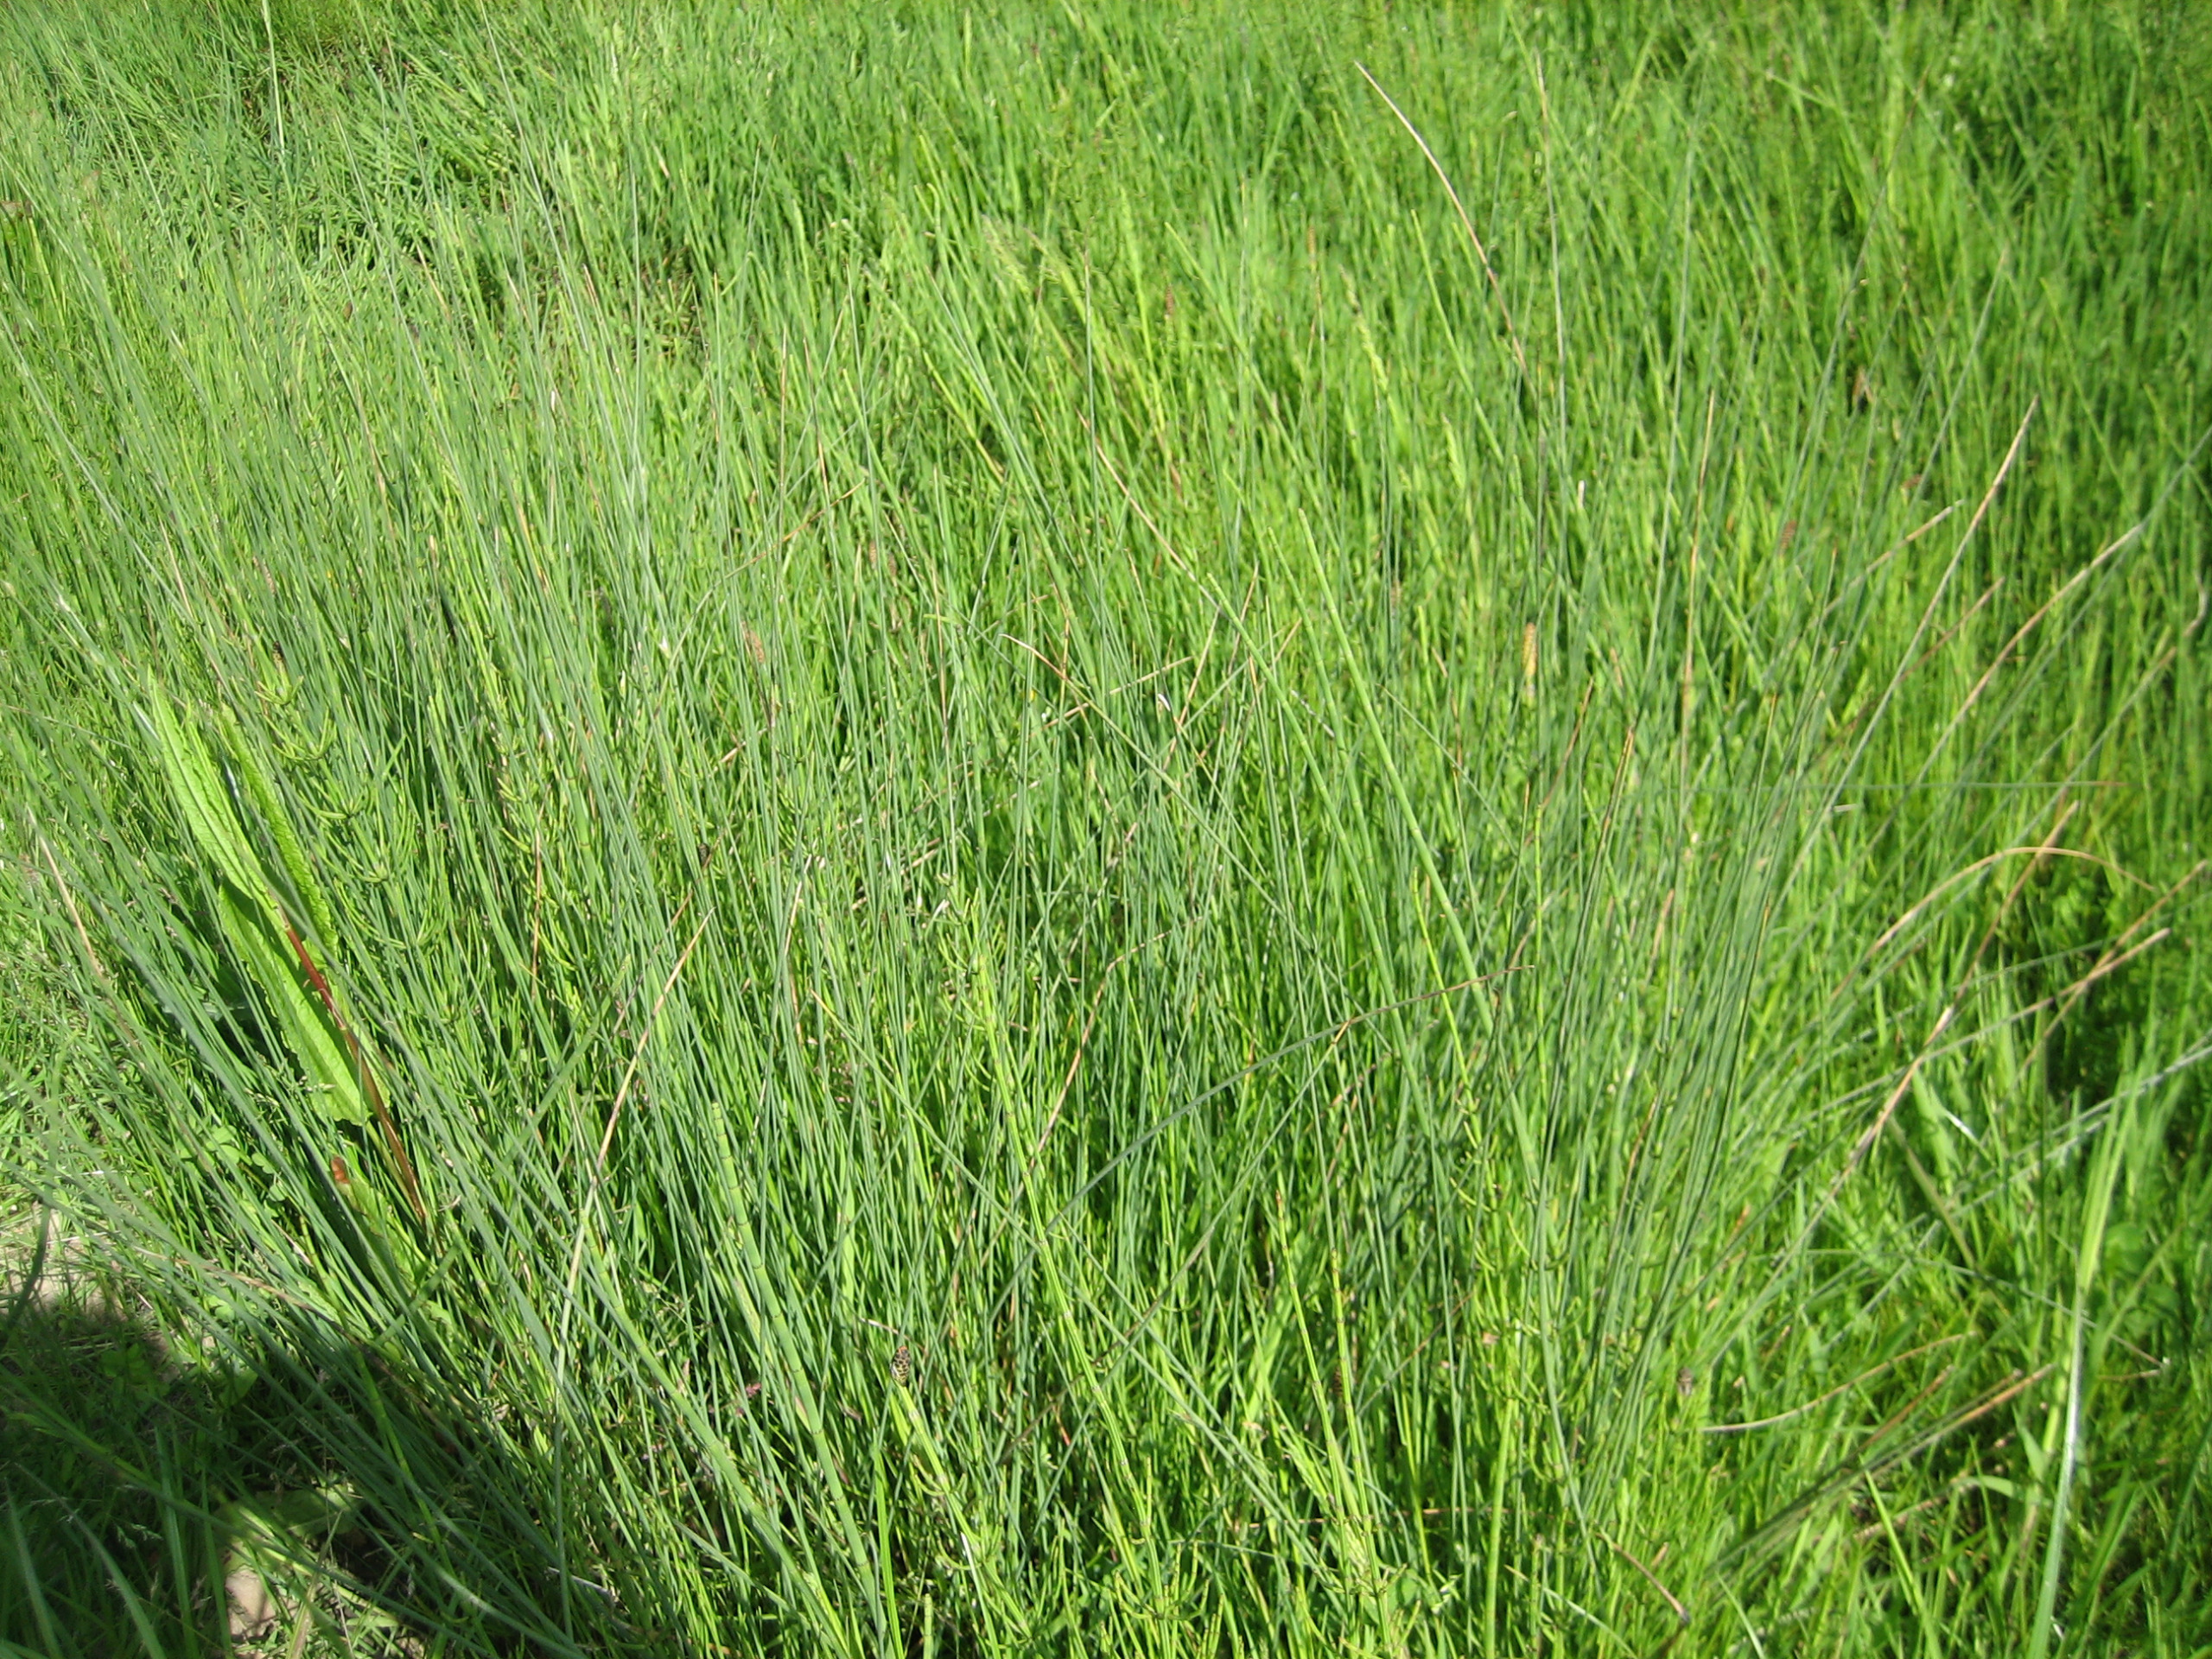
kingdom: Plantae
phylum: Tracheophyta
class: Liliopsida
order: Poales
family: Juncaceae
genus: Juncus
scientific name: Juncus inflexus
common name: Blågrå siv
